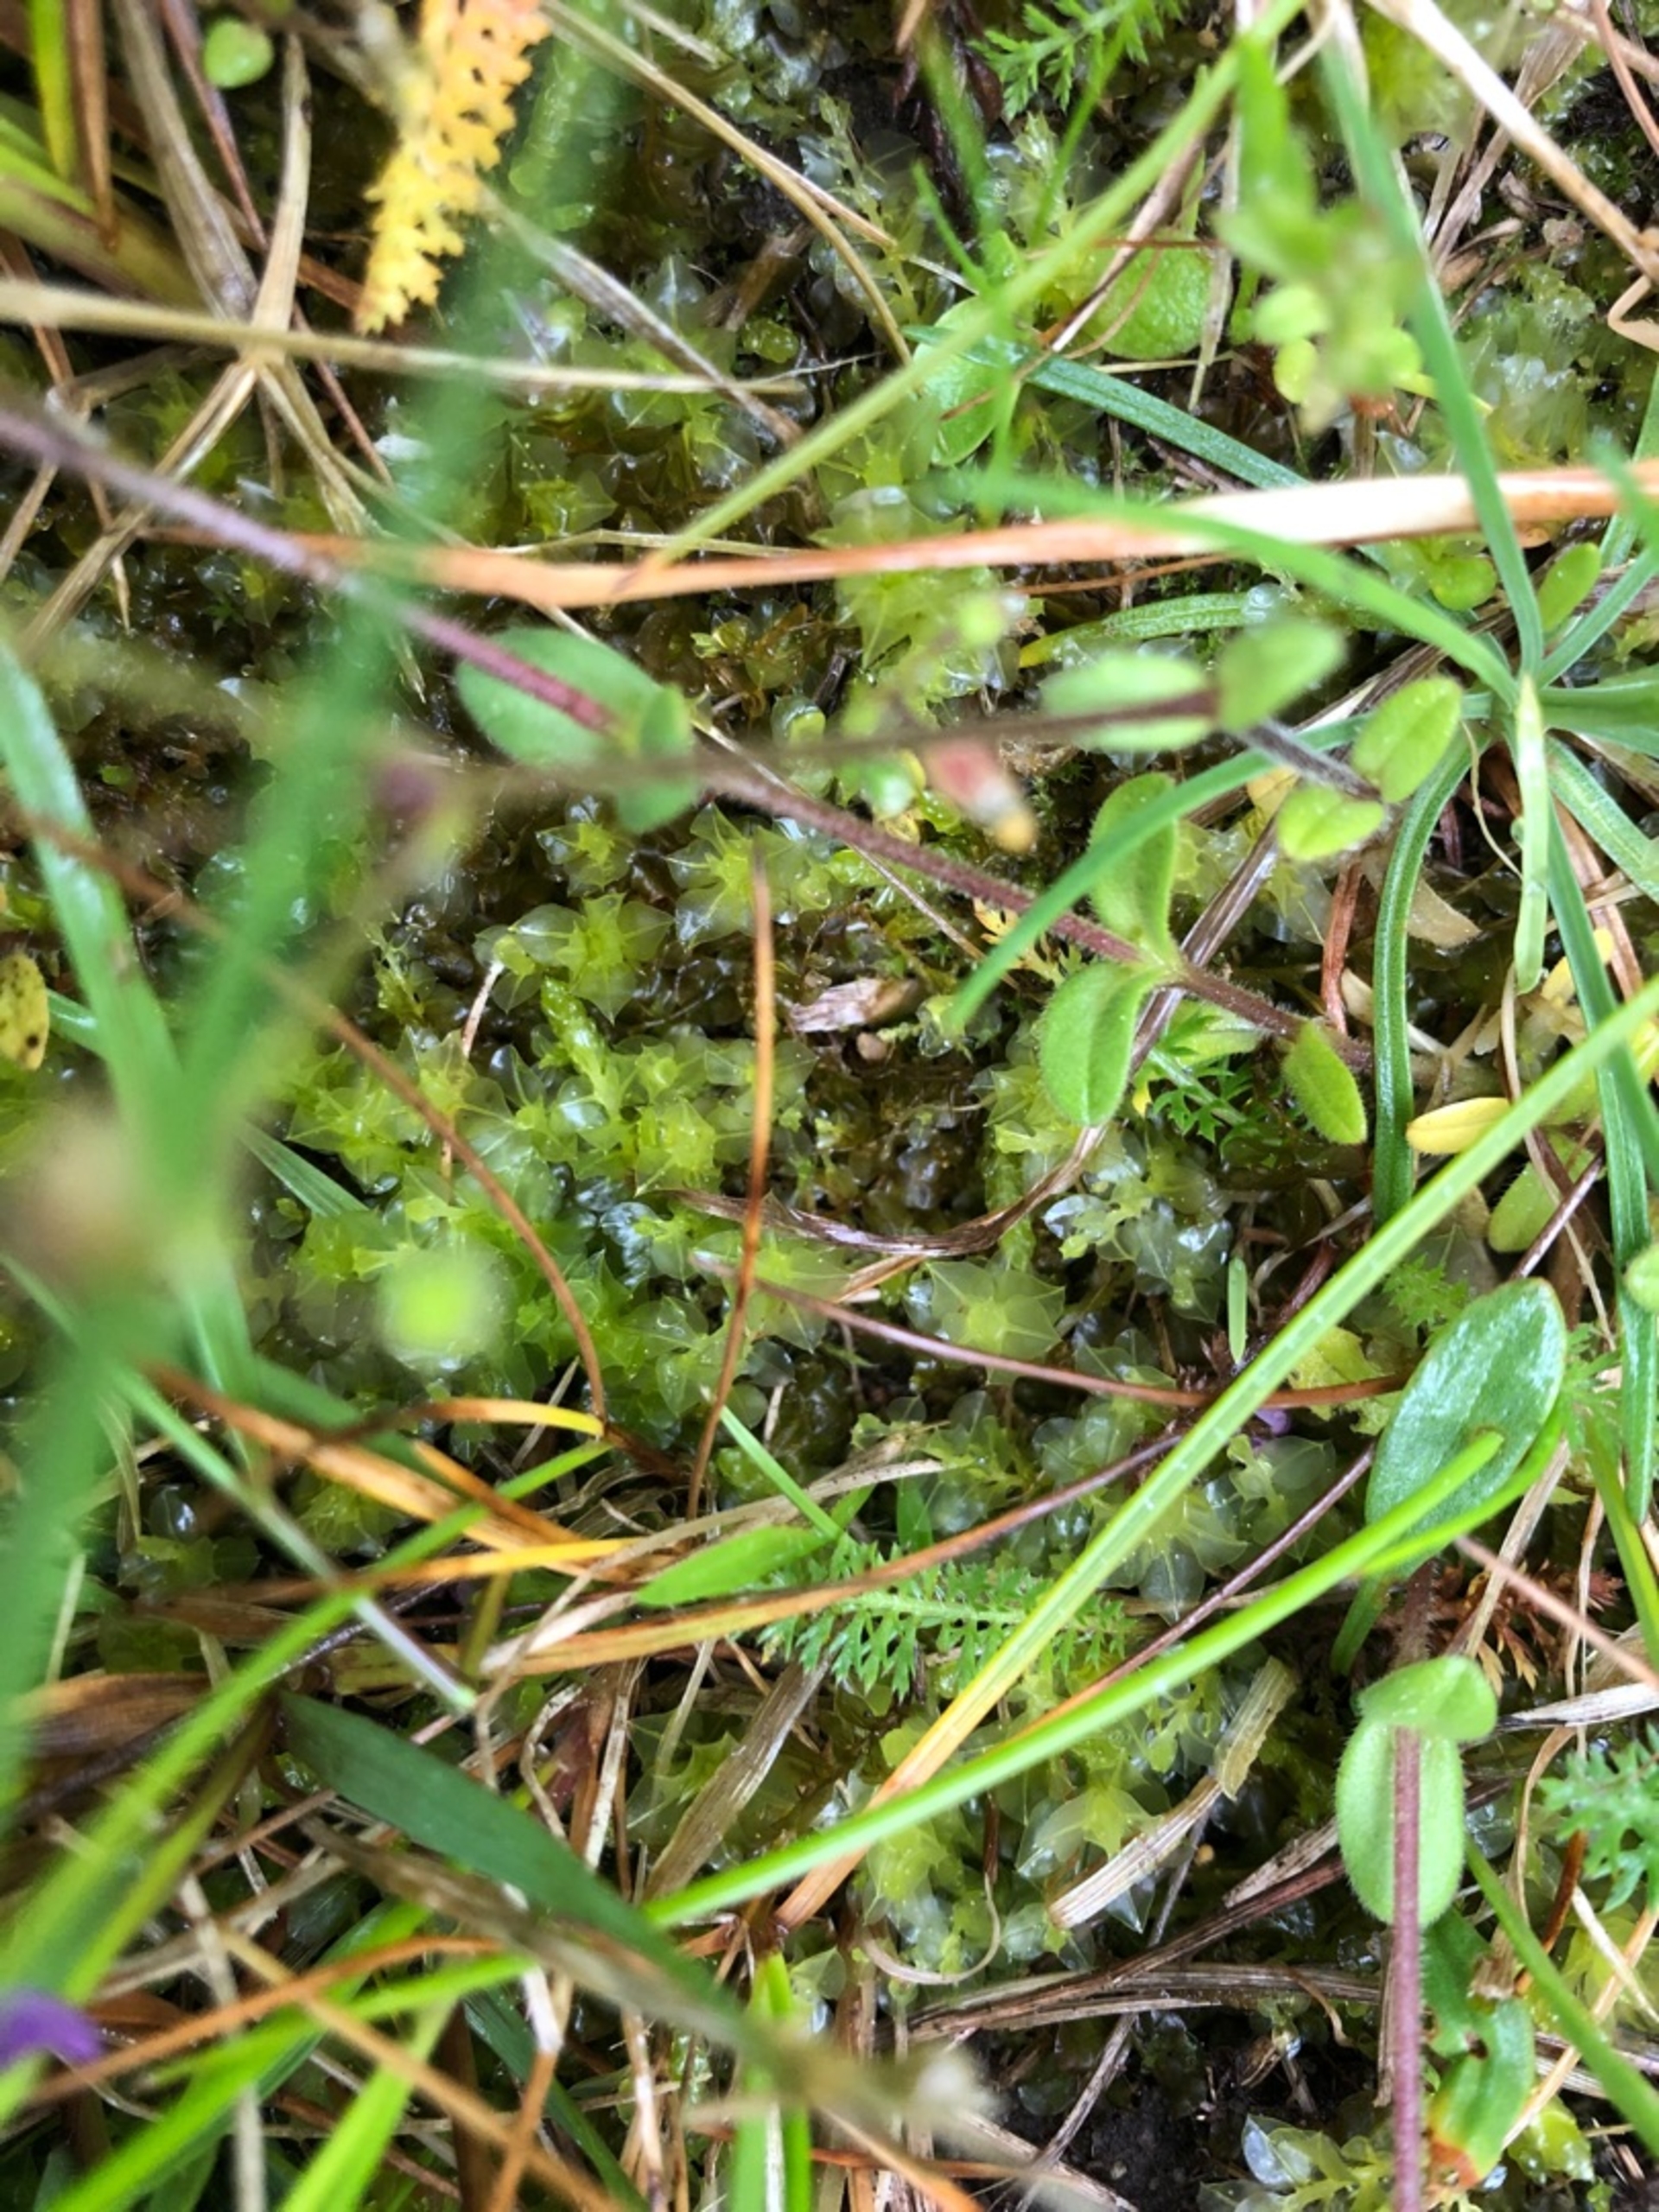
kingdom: Plantae
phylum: Bryophyta
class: Bryopsida
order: Bryales
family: Mniaceae
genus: Plagiomnium
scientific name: Plagiomnium
